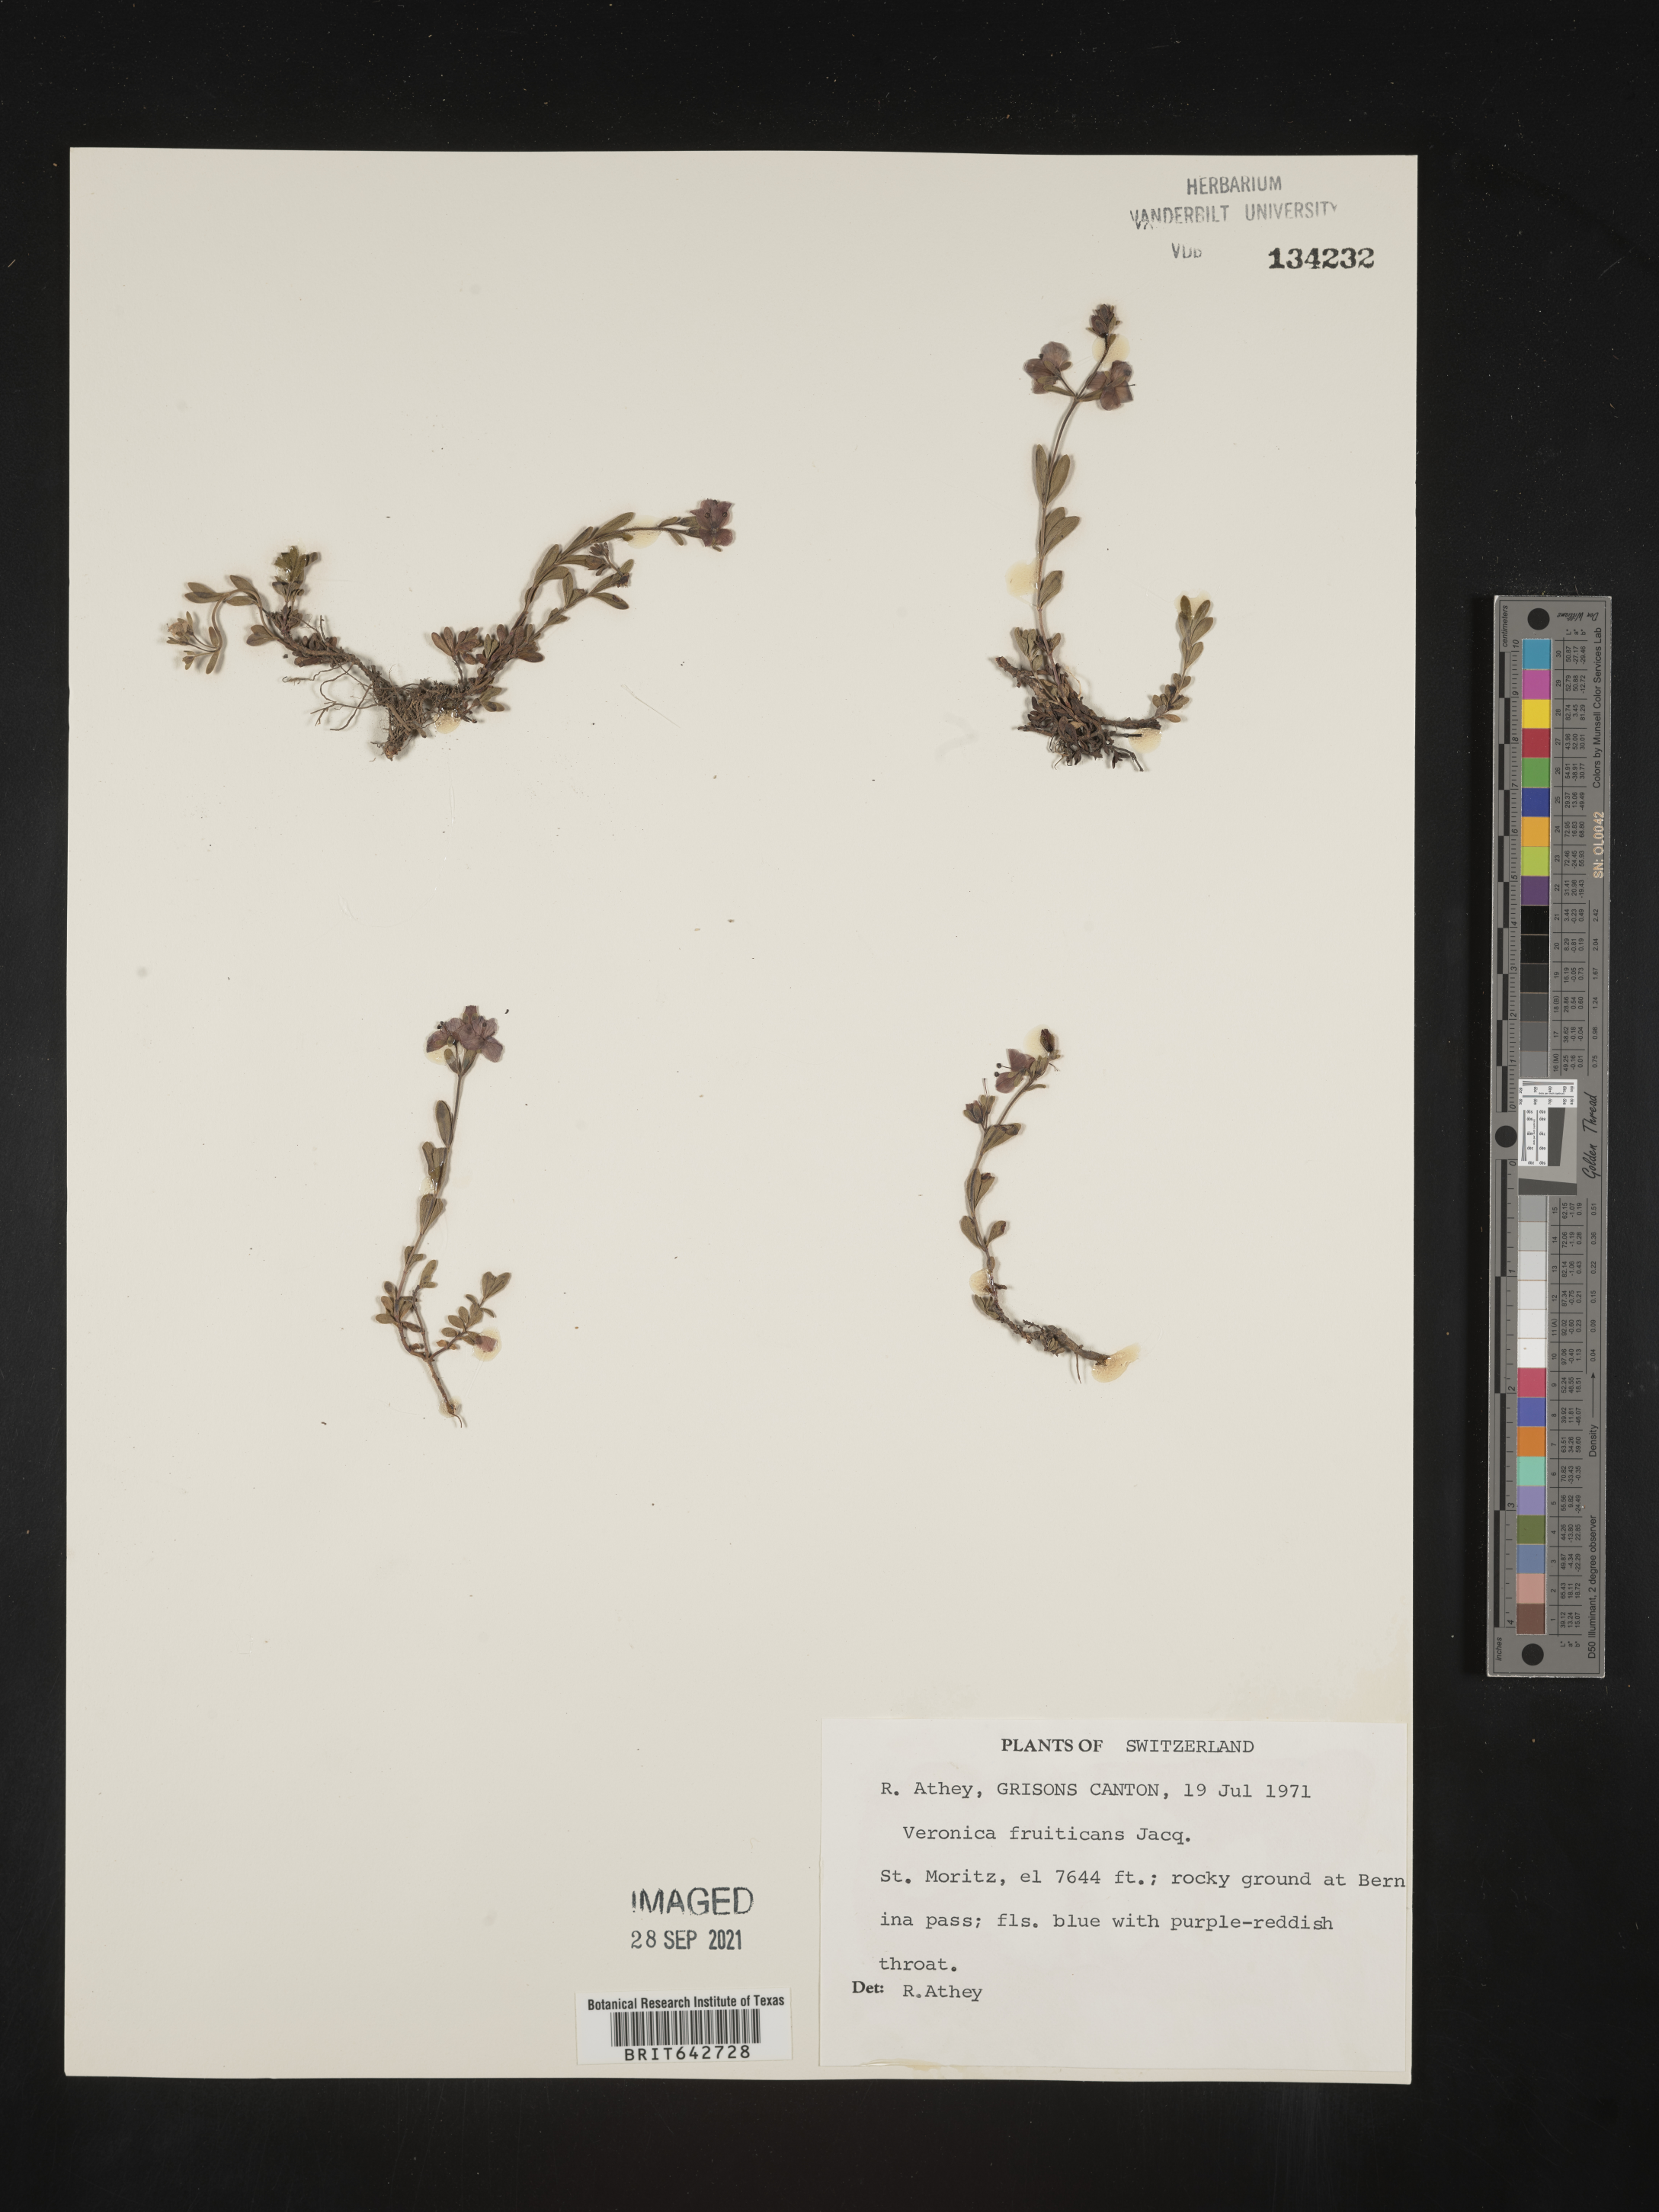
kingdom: Plantae
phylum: Tracheophyta
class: Magnoliopsida
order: Lamiales
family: Plantaginaceae
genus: Veronica
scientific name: Veronica
